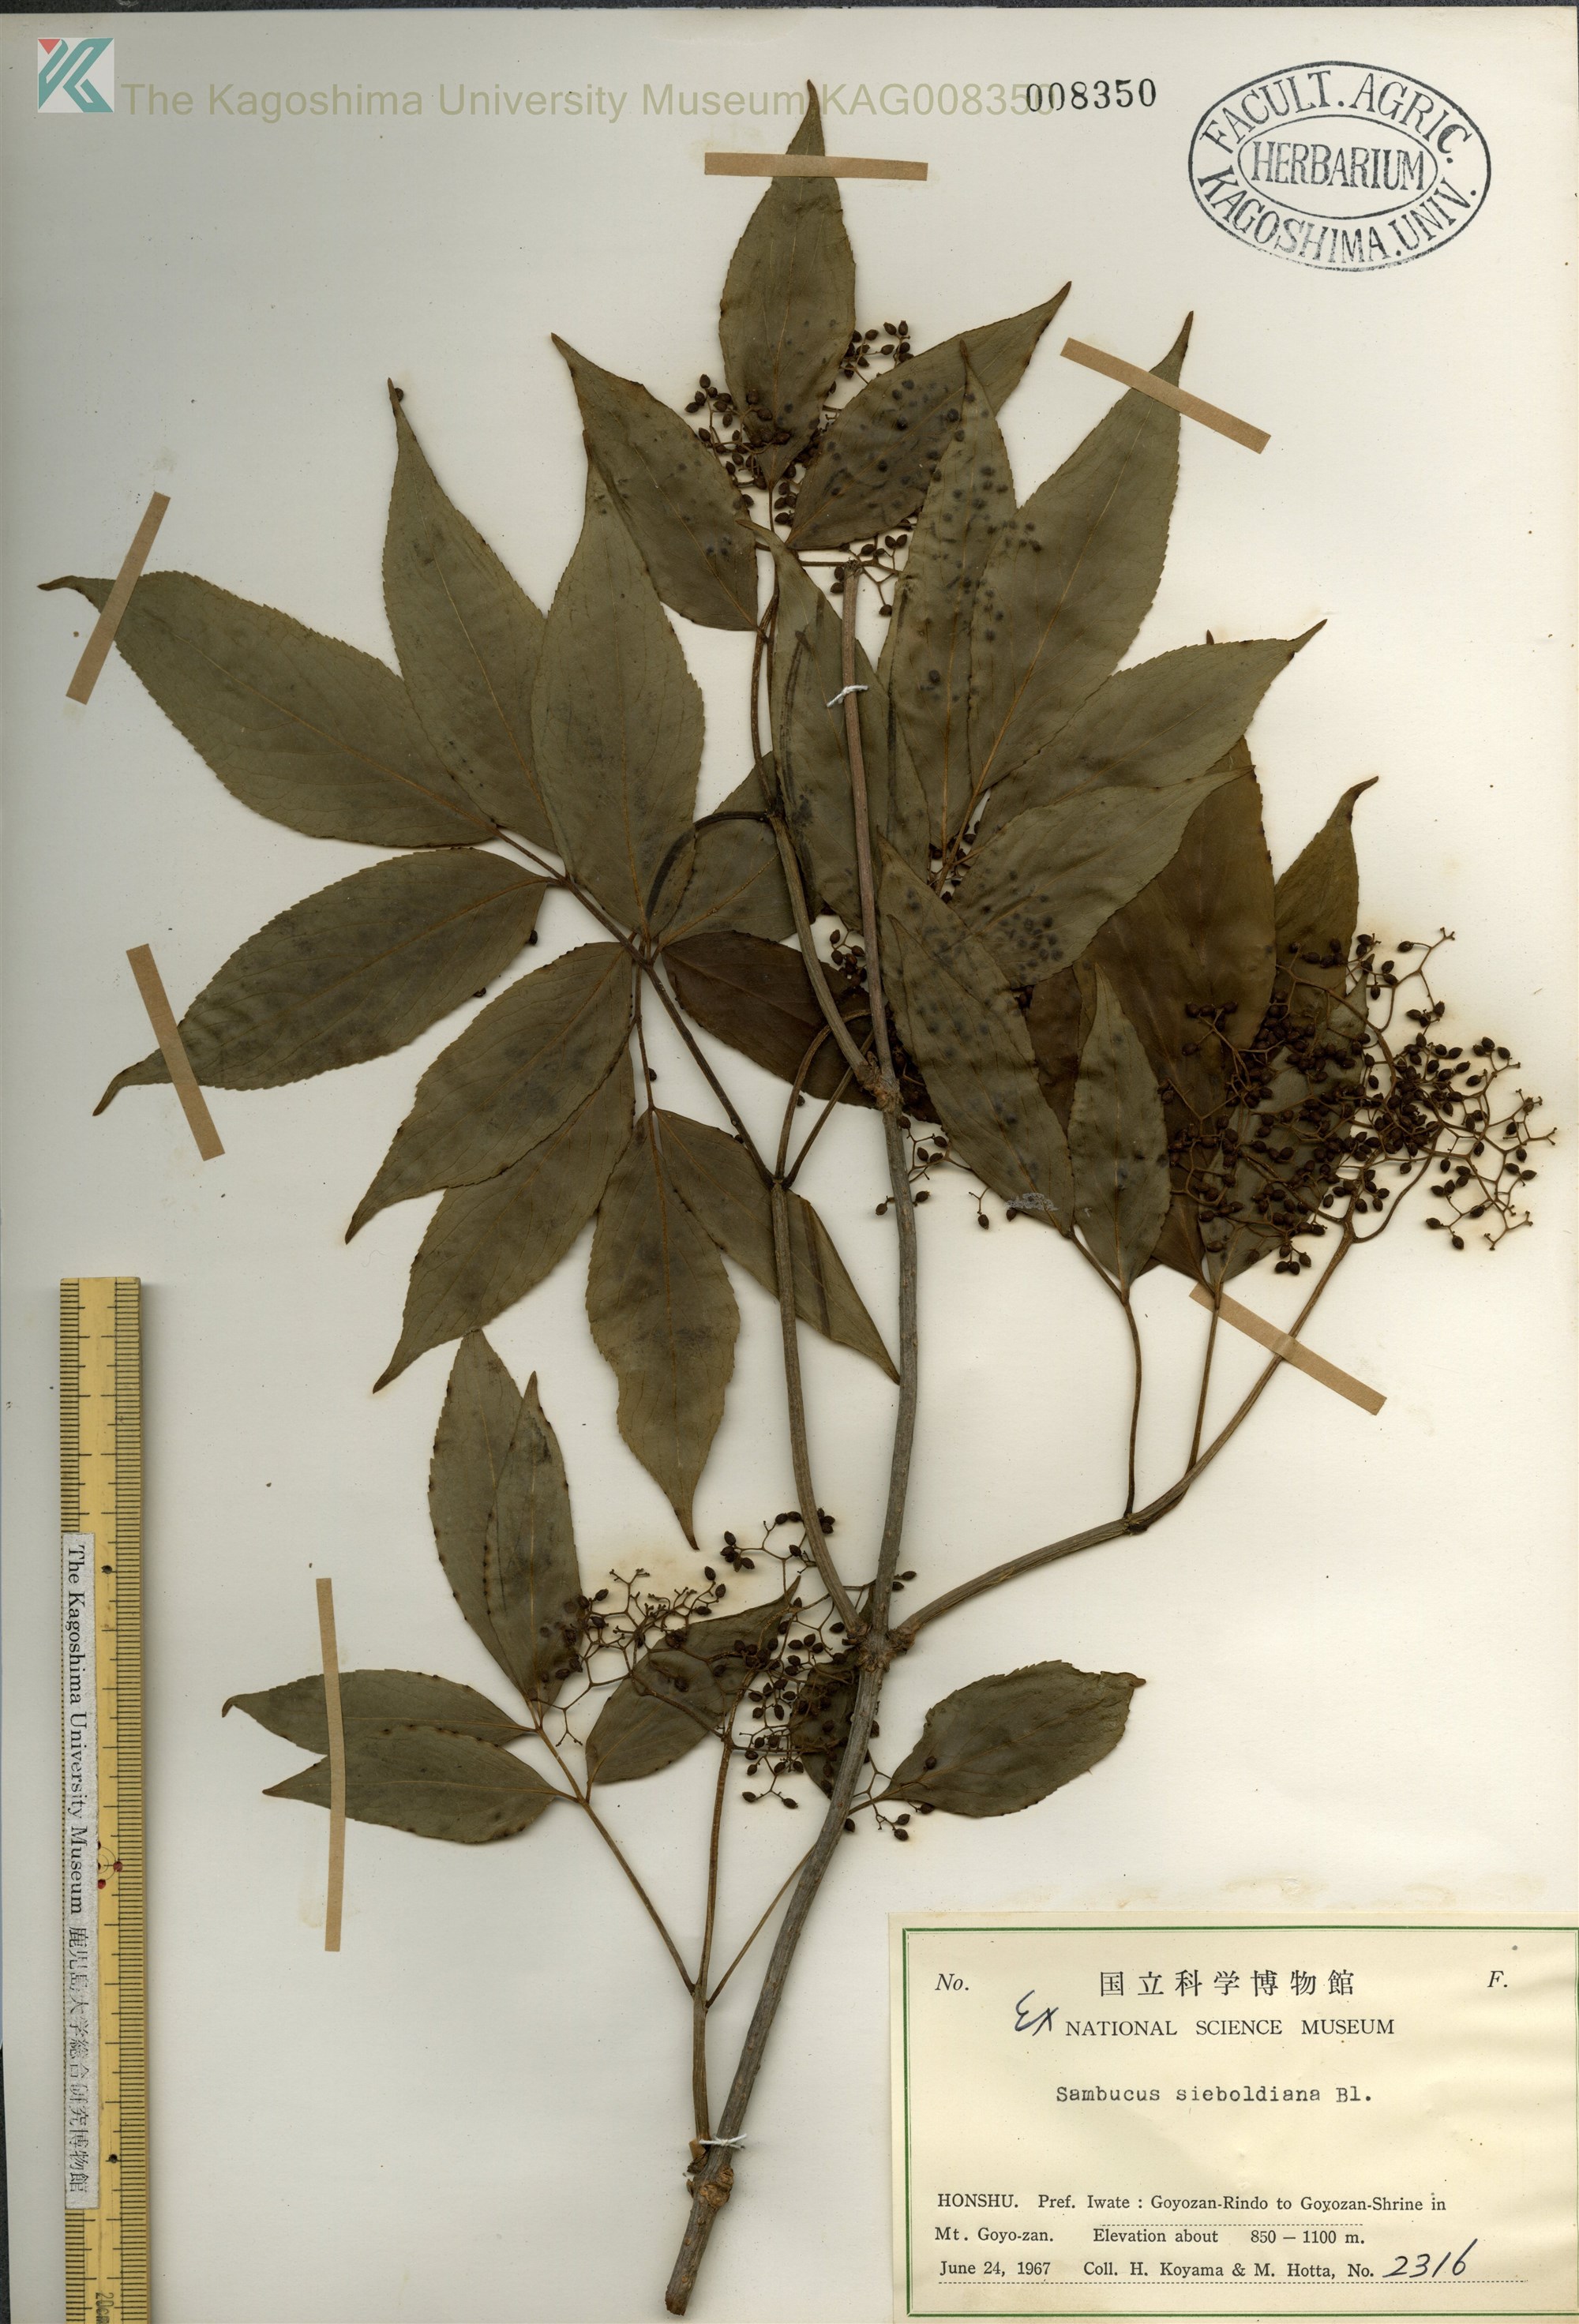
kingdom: Plantae
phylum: Tracheophyta
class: Magnoliopsida
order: Dipsacales
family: Viburnaceae
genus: Sambucus
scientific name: Sambucus sieboldiana
